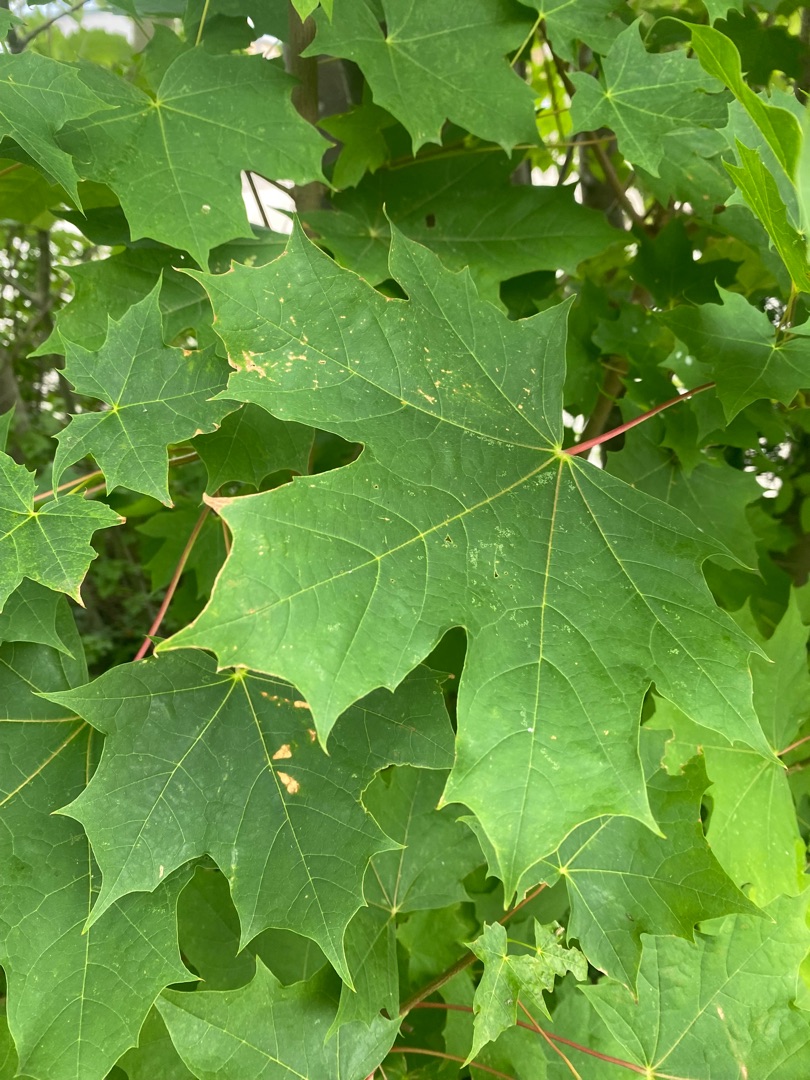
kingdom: Plantae
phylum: Tracheophyta
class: Magnoliopsida
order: Sapindales
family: Sapindaceae
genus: Acer
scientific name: Acer platanoides
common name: Spids-løn
